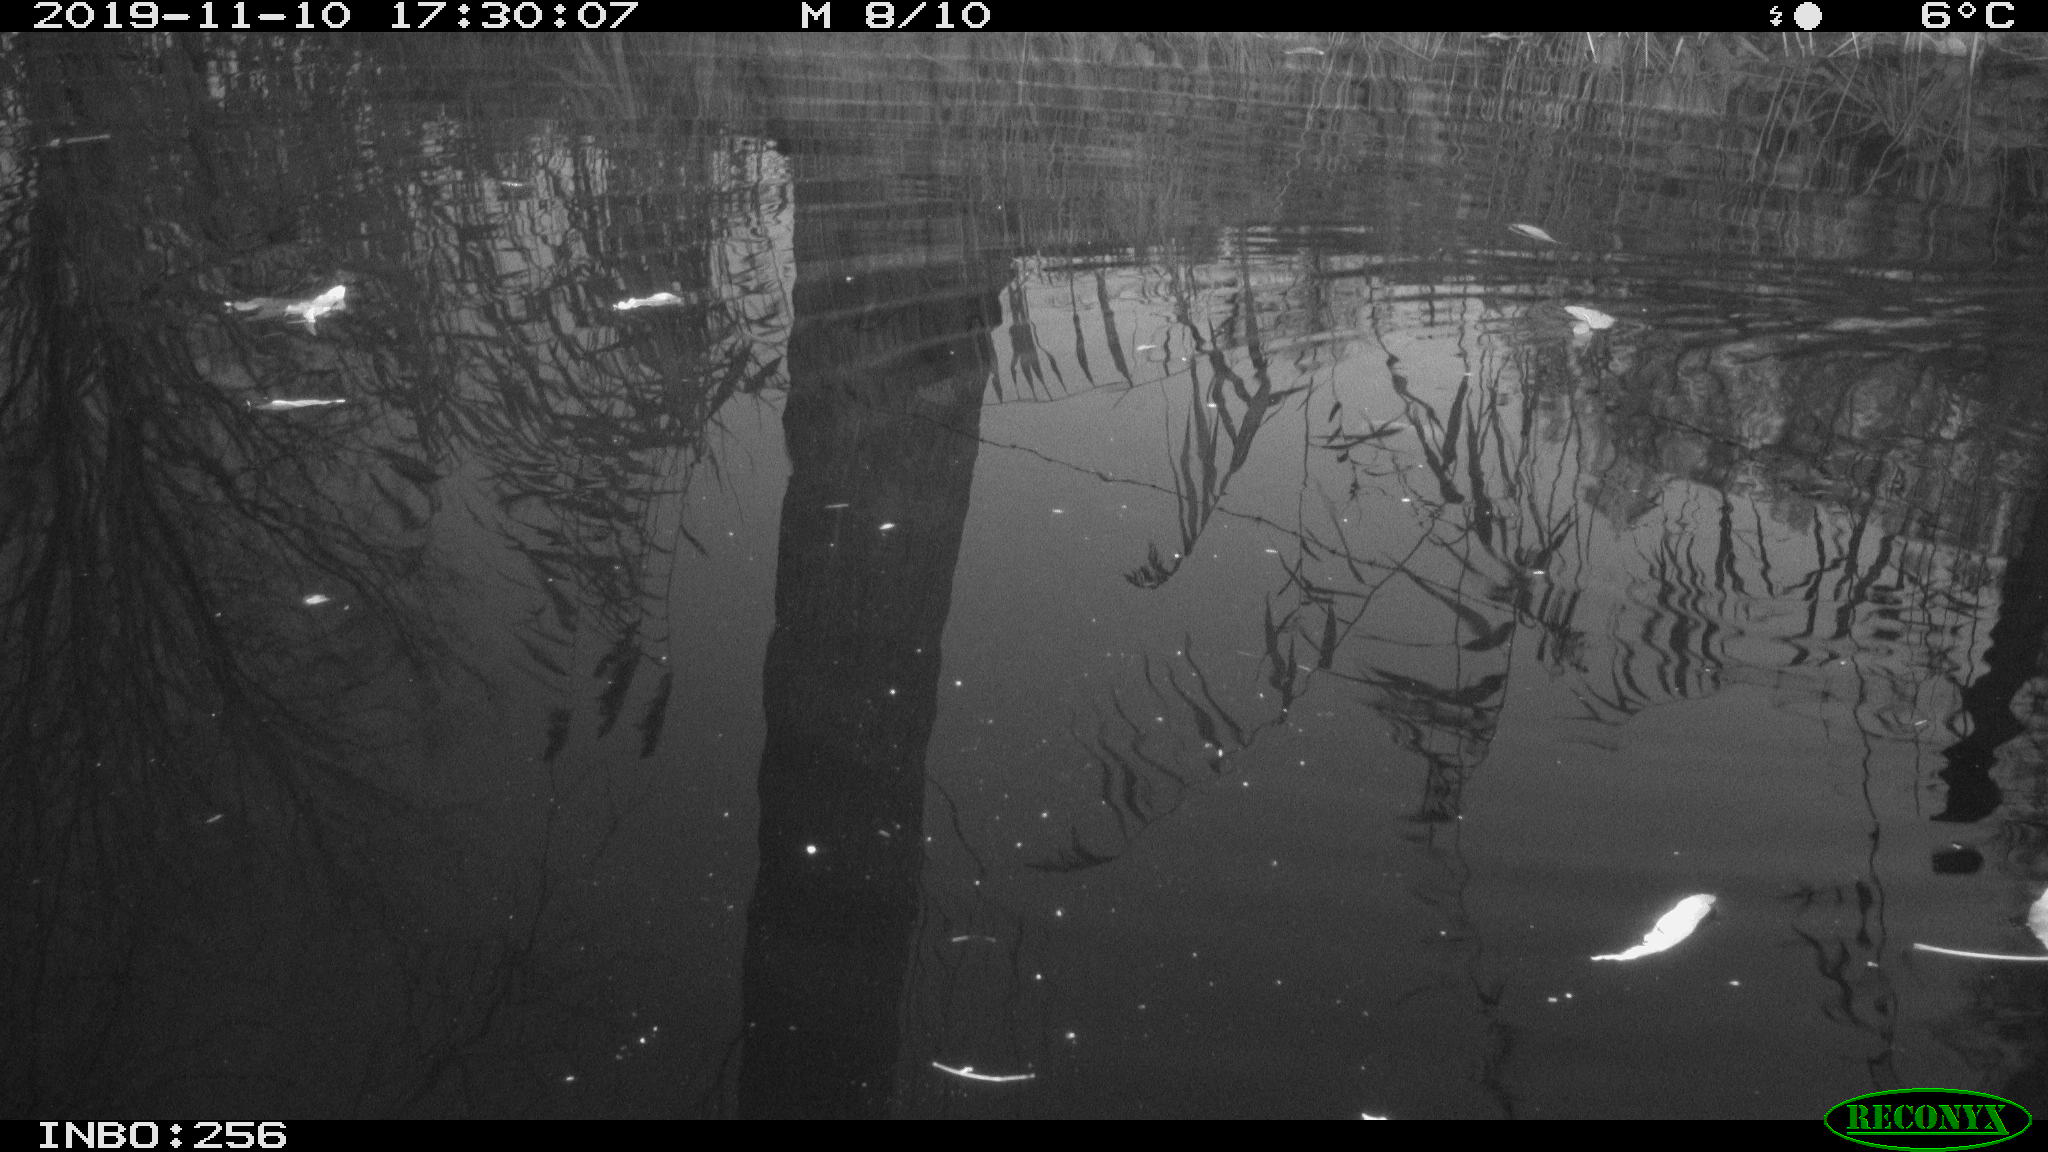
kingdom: Animalia
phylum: Chordata
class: Aves
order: Gruiformes
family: Rallidae
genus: Gallinula
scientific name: Gallinula chloropus
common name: Common moorhen
